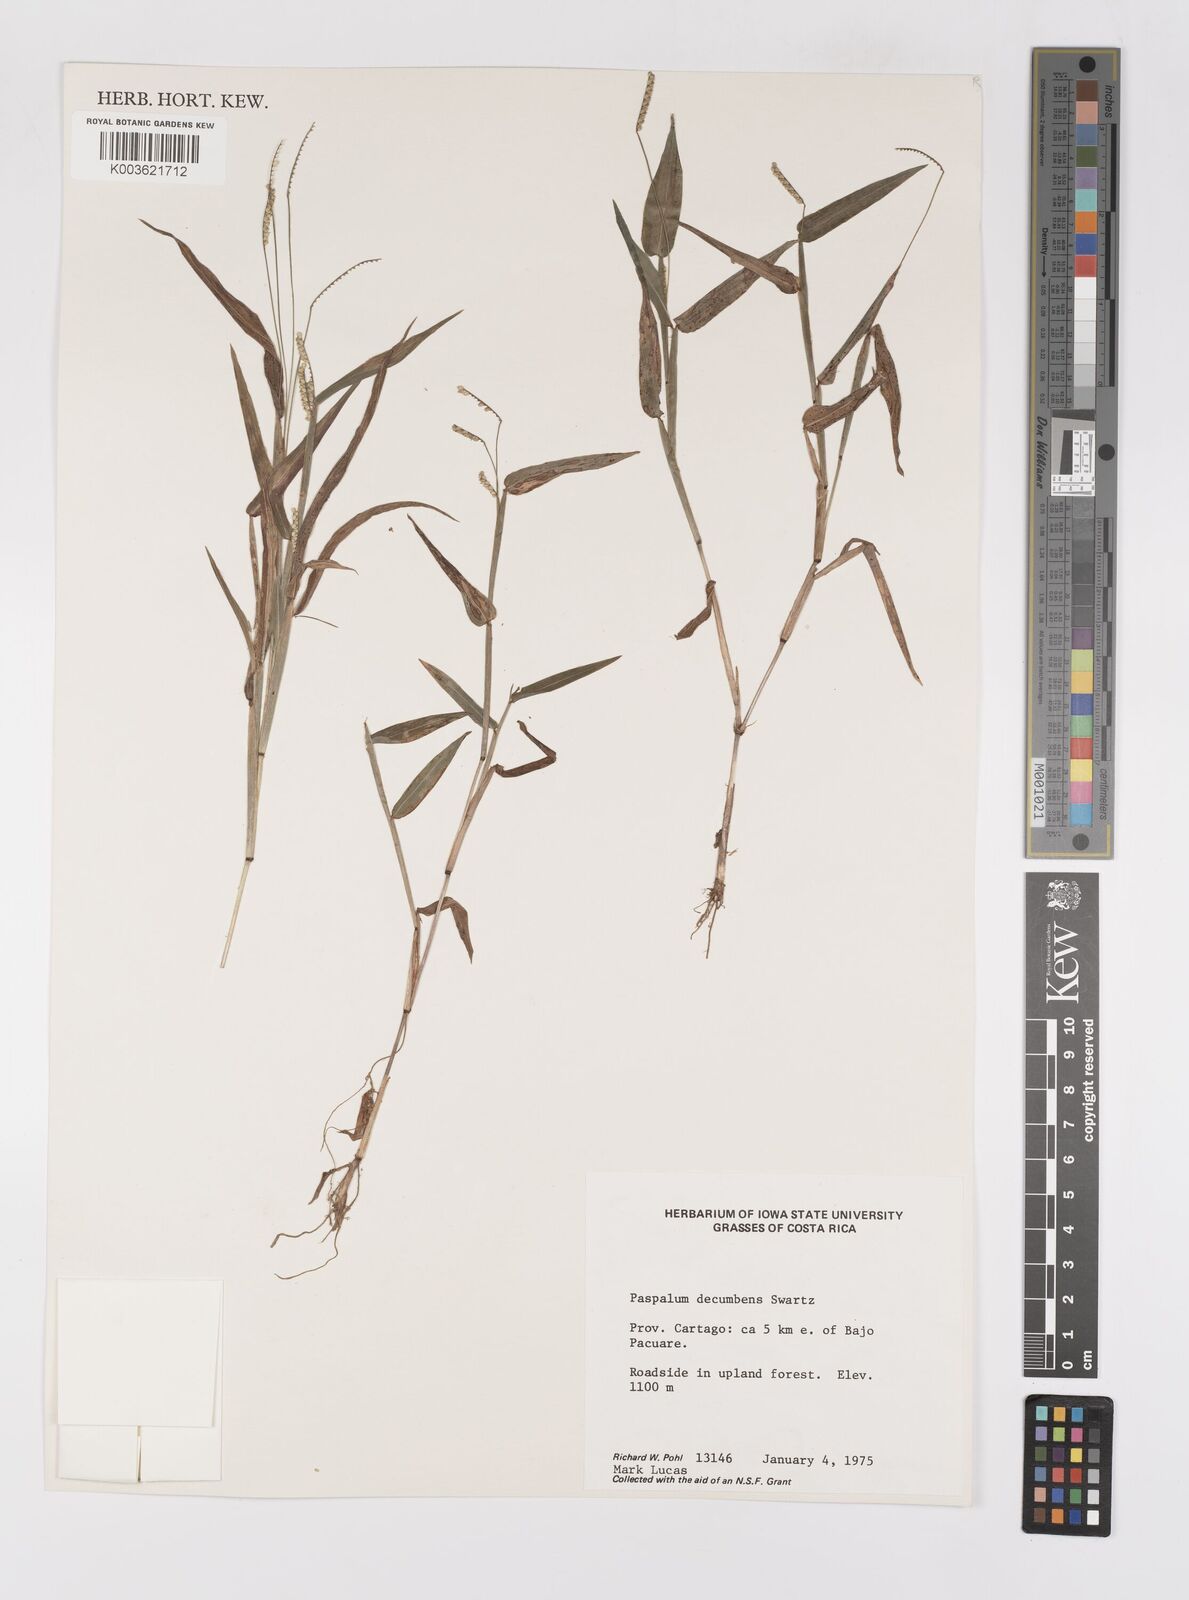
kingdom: Plantae
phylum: Tracheophyta
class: Liliopsida
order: Poales
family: Poaceae
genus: Paspalum
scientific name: Paspalum
